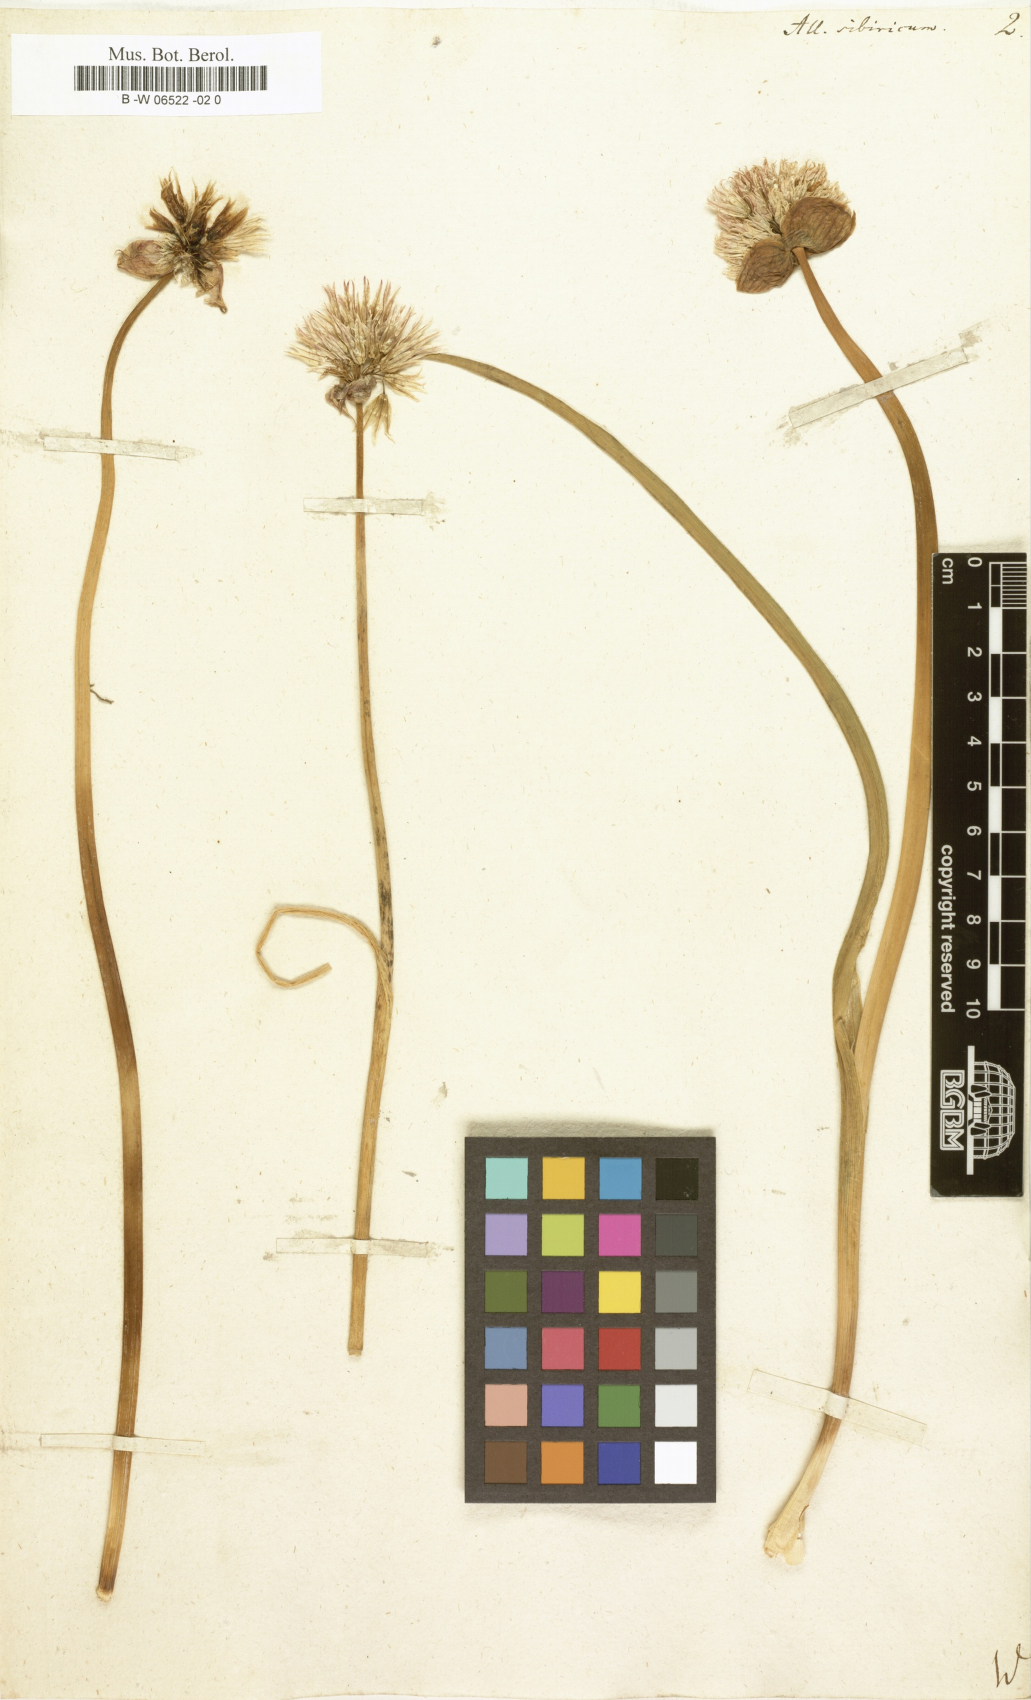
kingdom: Plantae
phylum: Tracheophyta
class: Liliopsida
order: Asparagales
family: Amaryllidaceae
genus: Allium
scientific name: Allium schoenoprasum
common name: Chives
